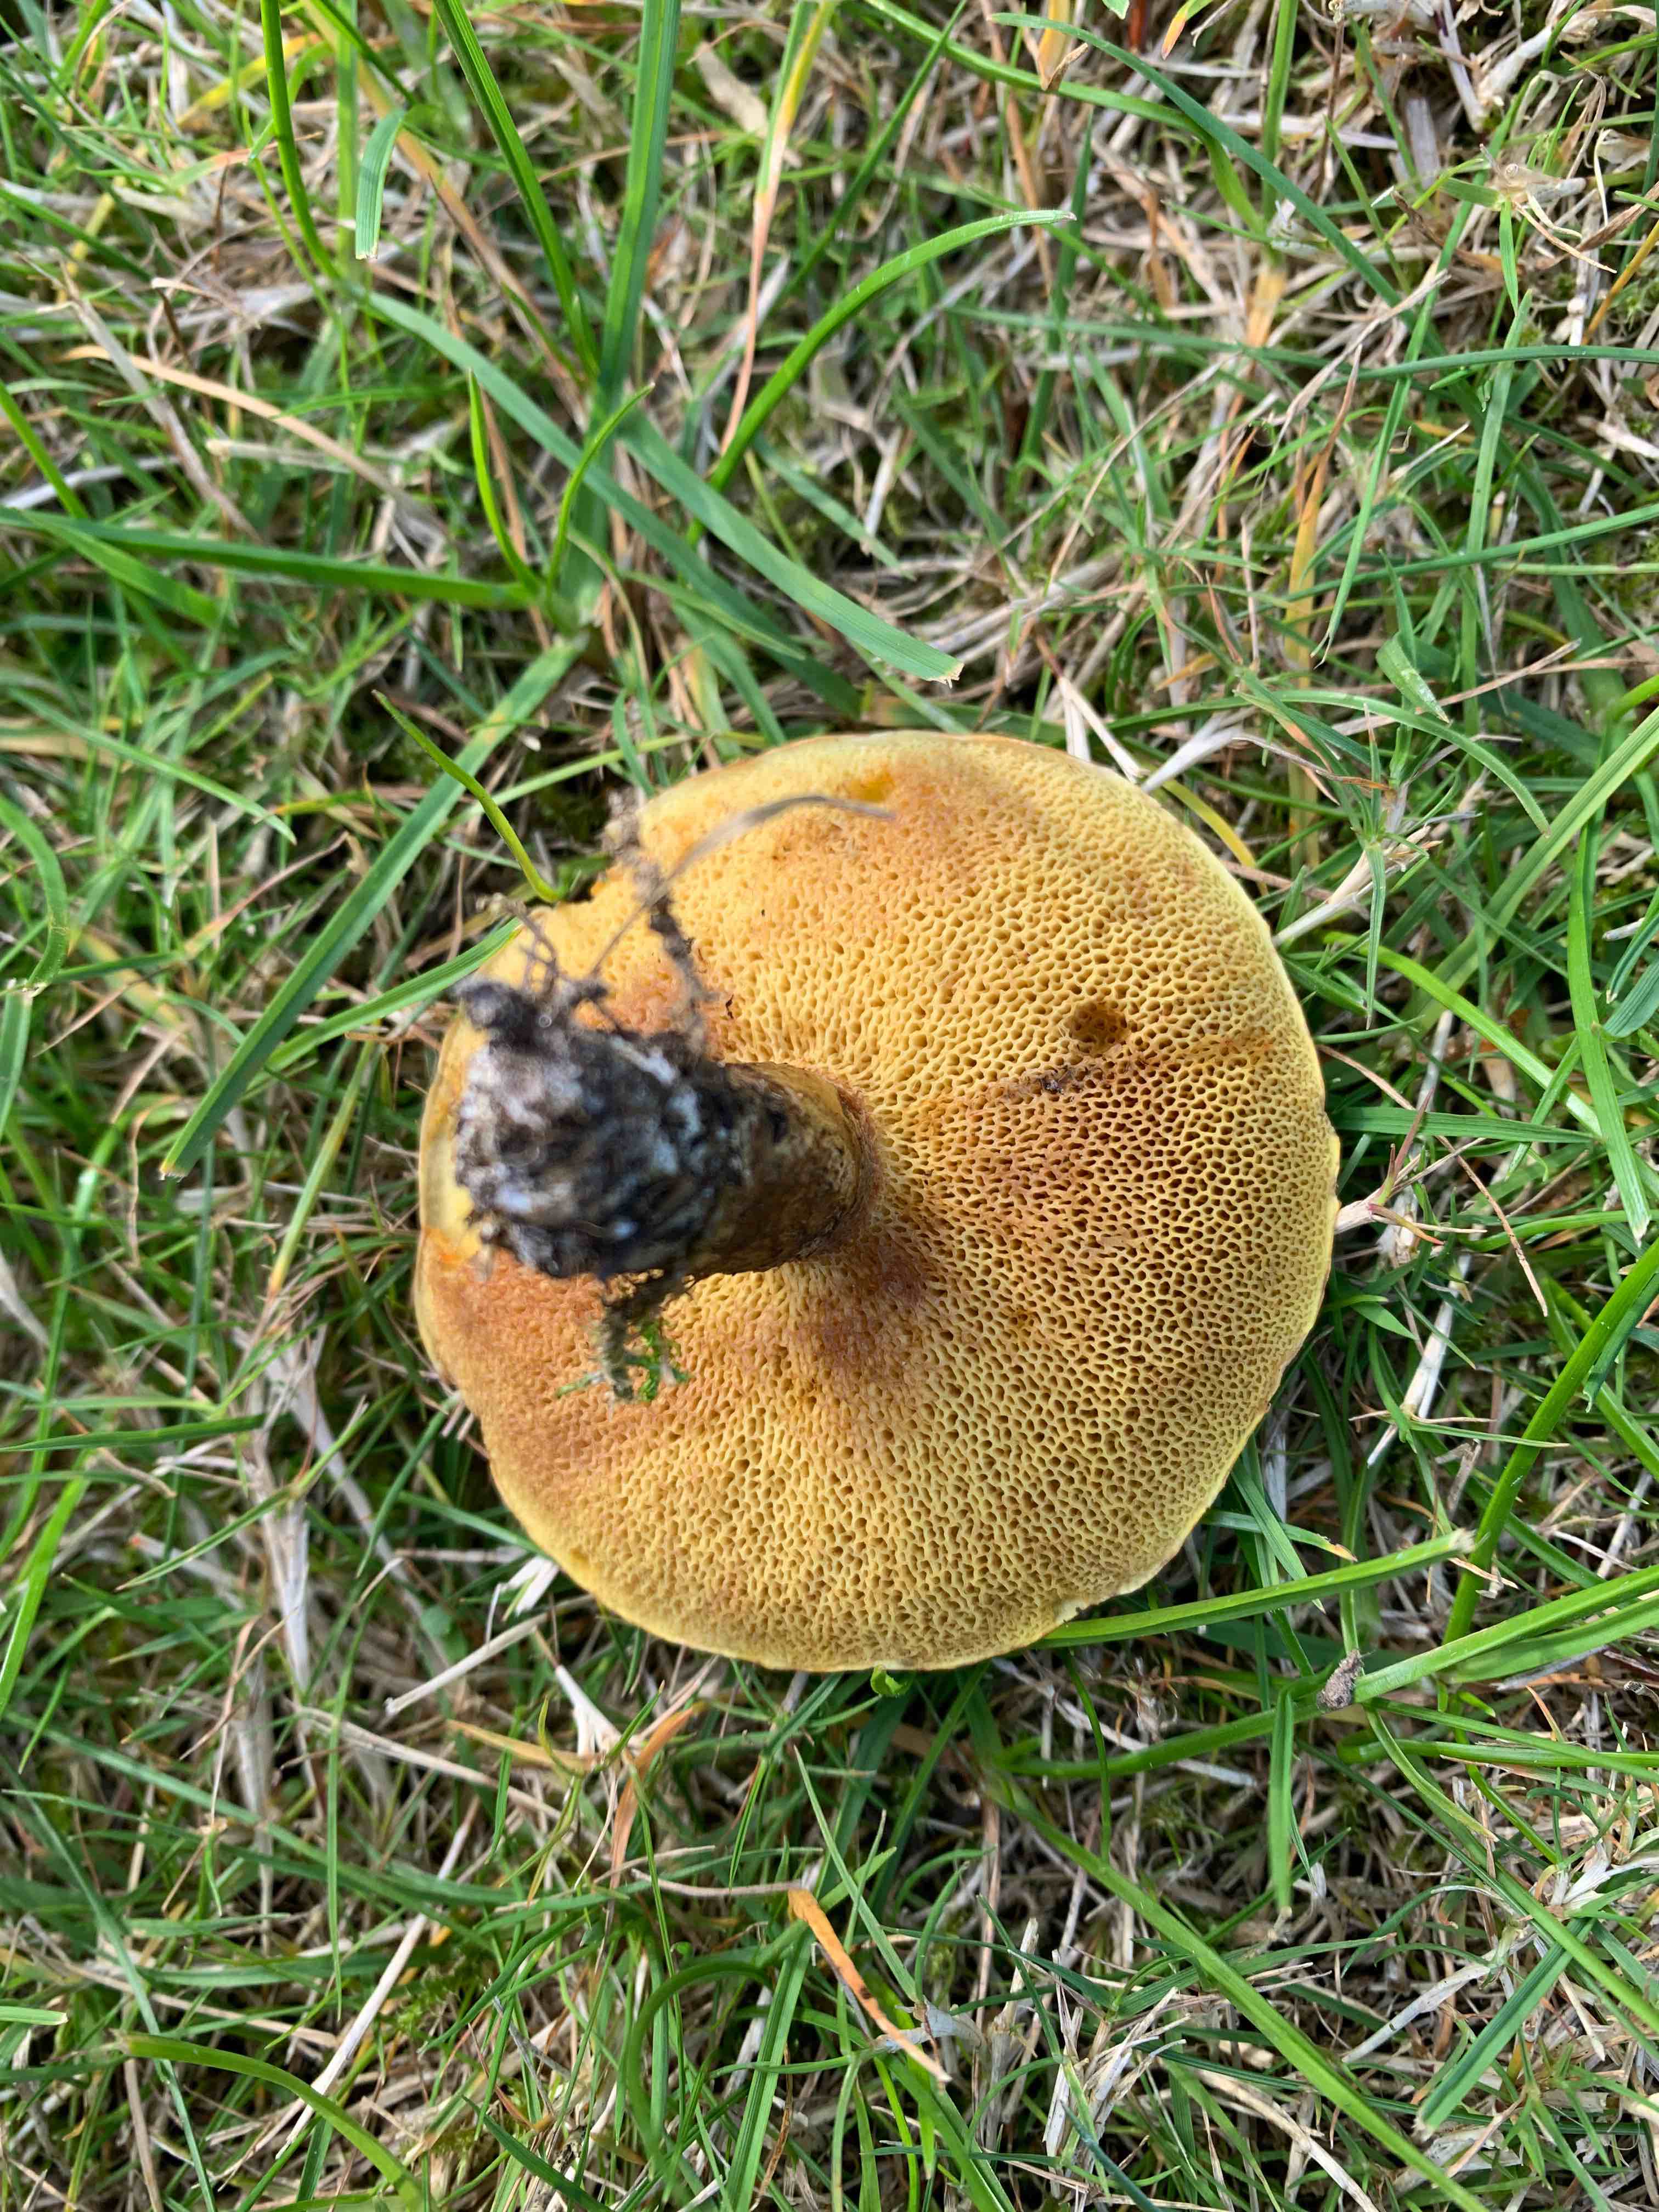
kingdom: Fungi
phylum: Basidiomycota
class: Agaricomycetes
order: Boletales
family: Suillaceae
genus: Suillus
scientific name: Suillus grevillei
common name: lærke-slimrørhat
